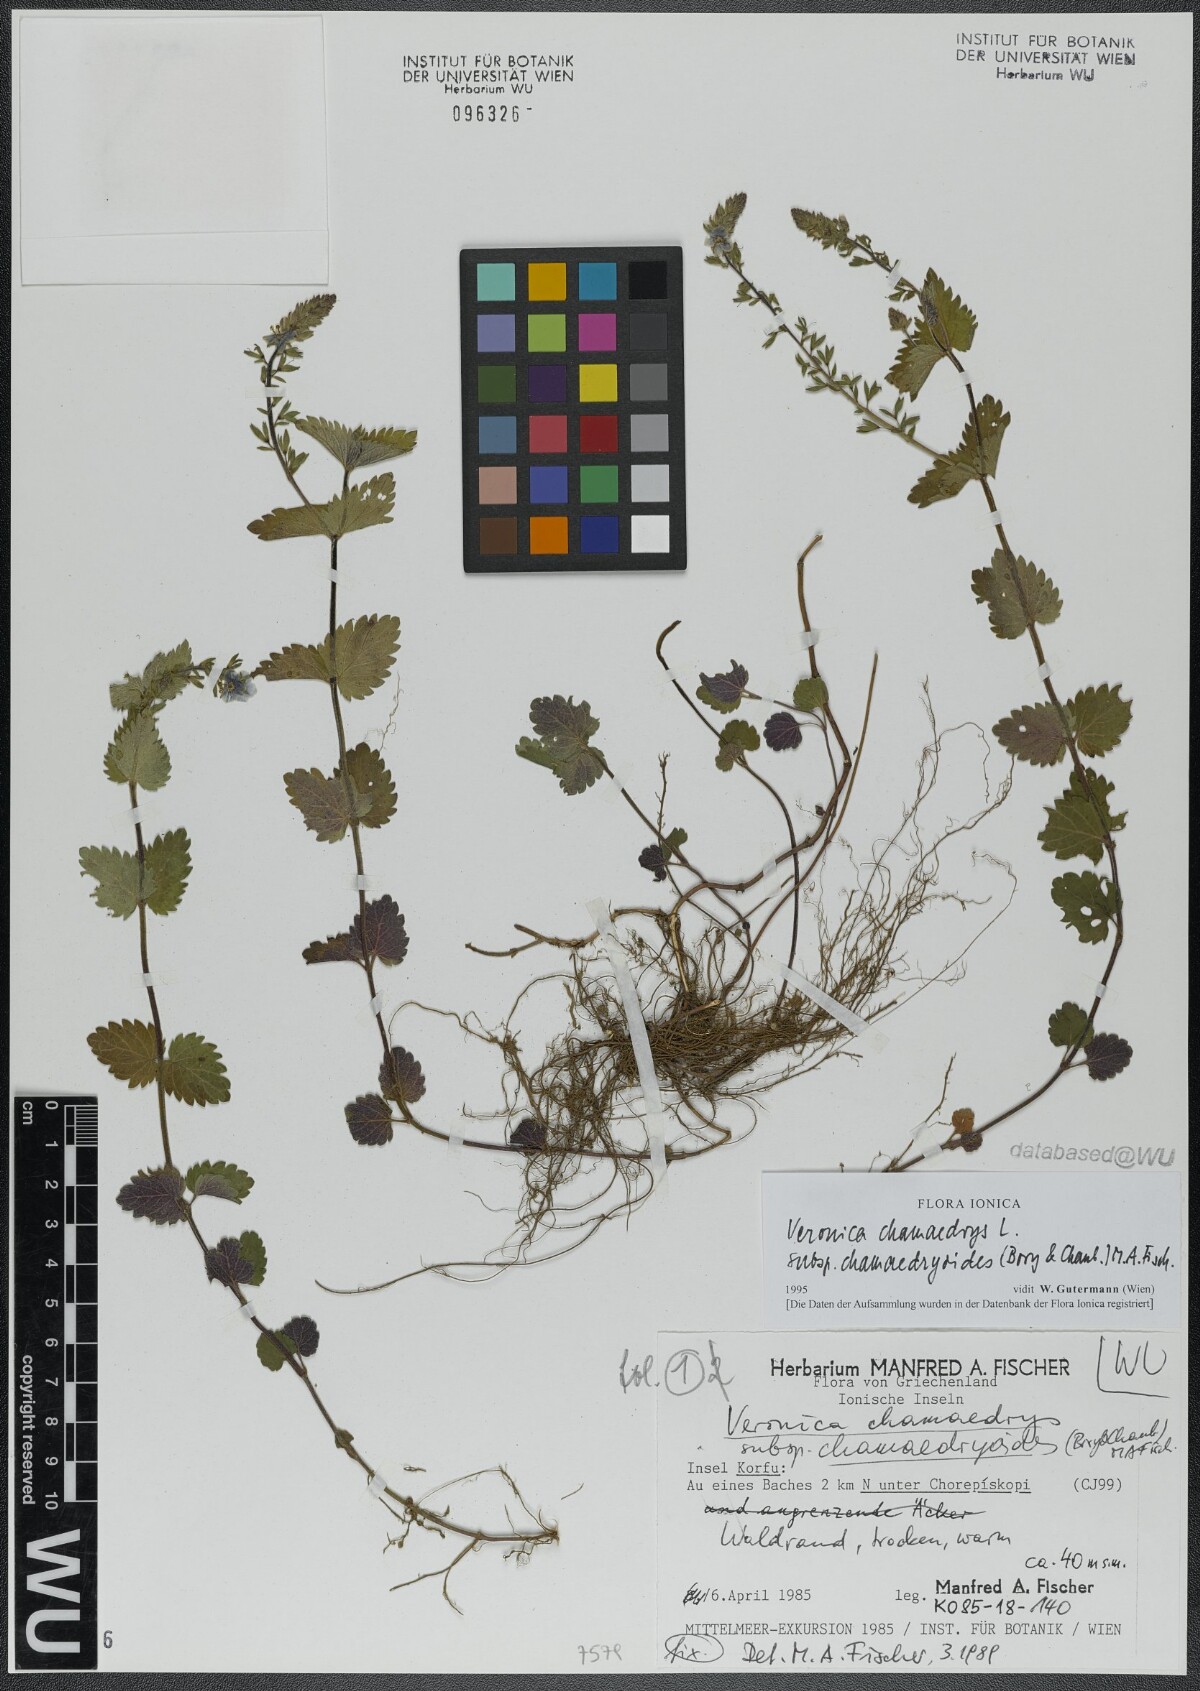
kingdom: Plantae
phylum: Tracheophyta
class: Magnoliopsida
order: Lamiales
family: Plantaginaceae
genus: Veronica
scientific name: Veronica chamaedrys
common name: Germander speedwell
